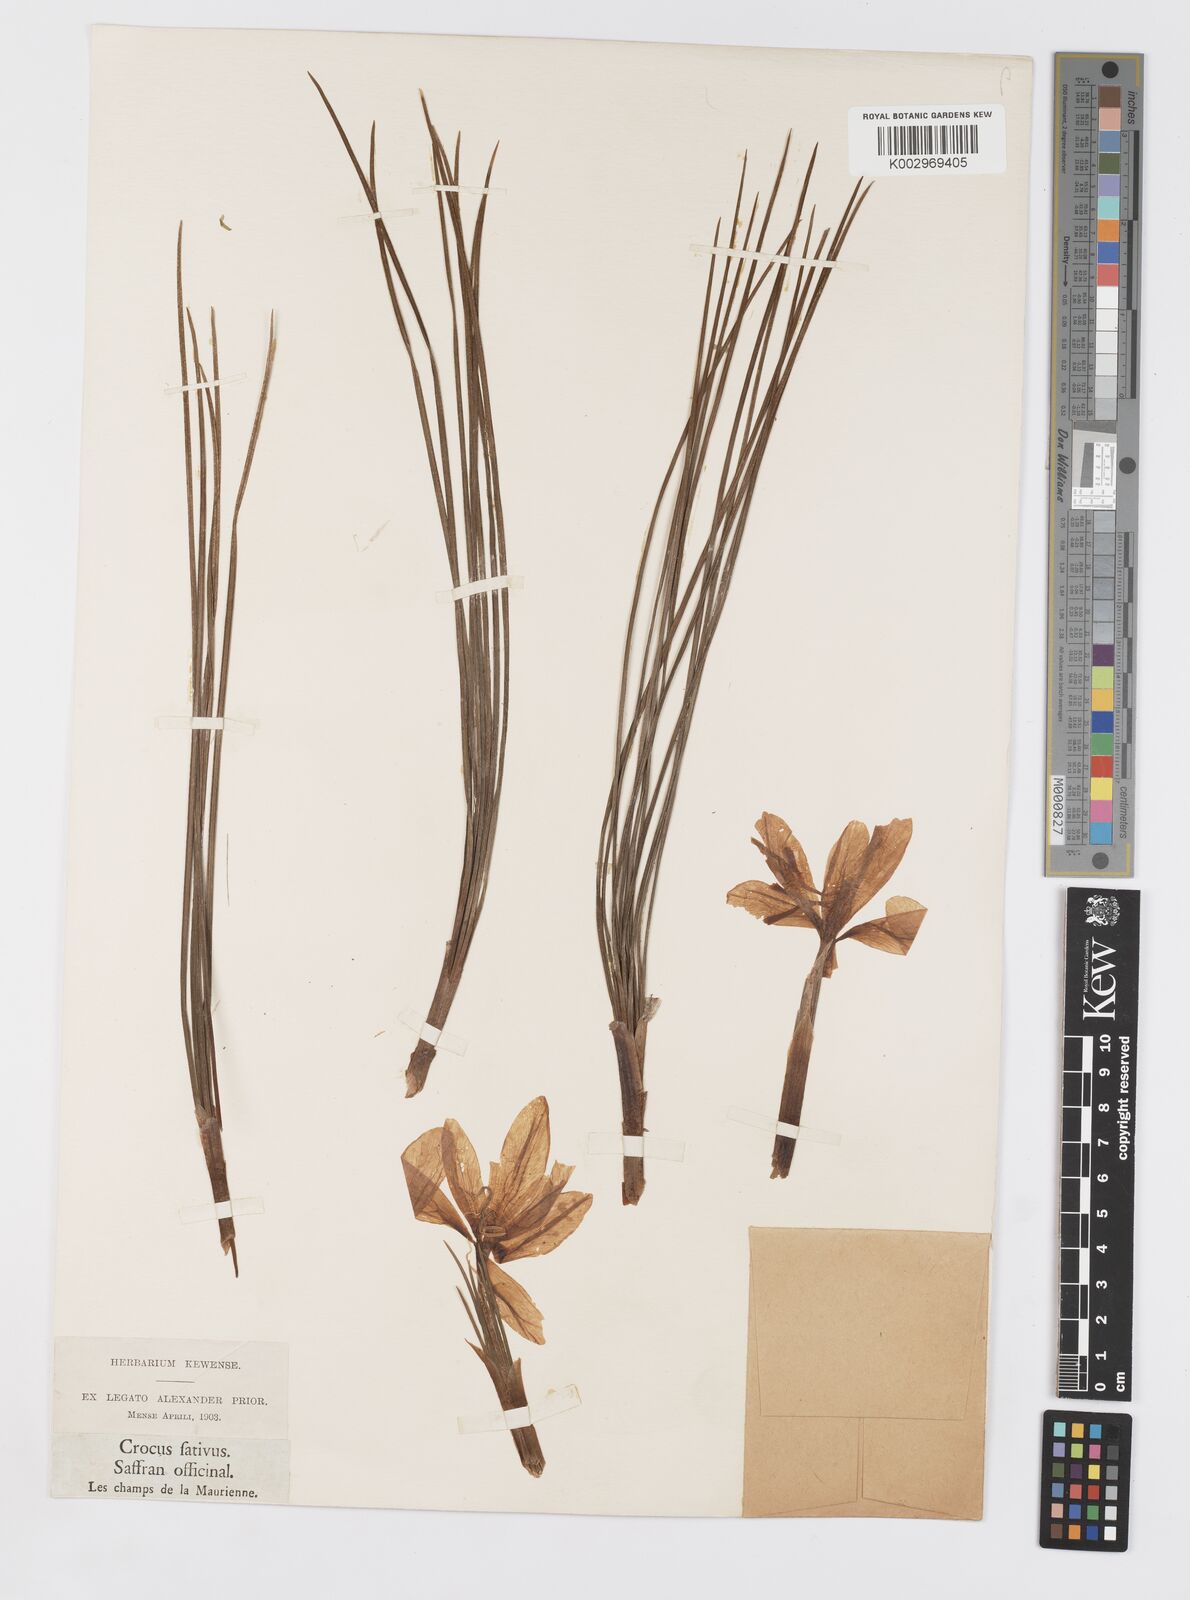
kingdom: Plantae
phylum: Tracheophyta
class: Liliopsida
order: Asparagales
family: Iridaceae
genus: Crocus
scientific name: Crocus sativus
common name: Saffron crocus
